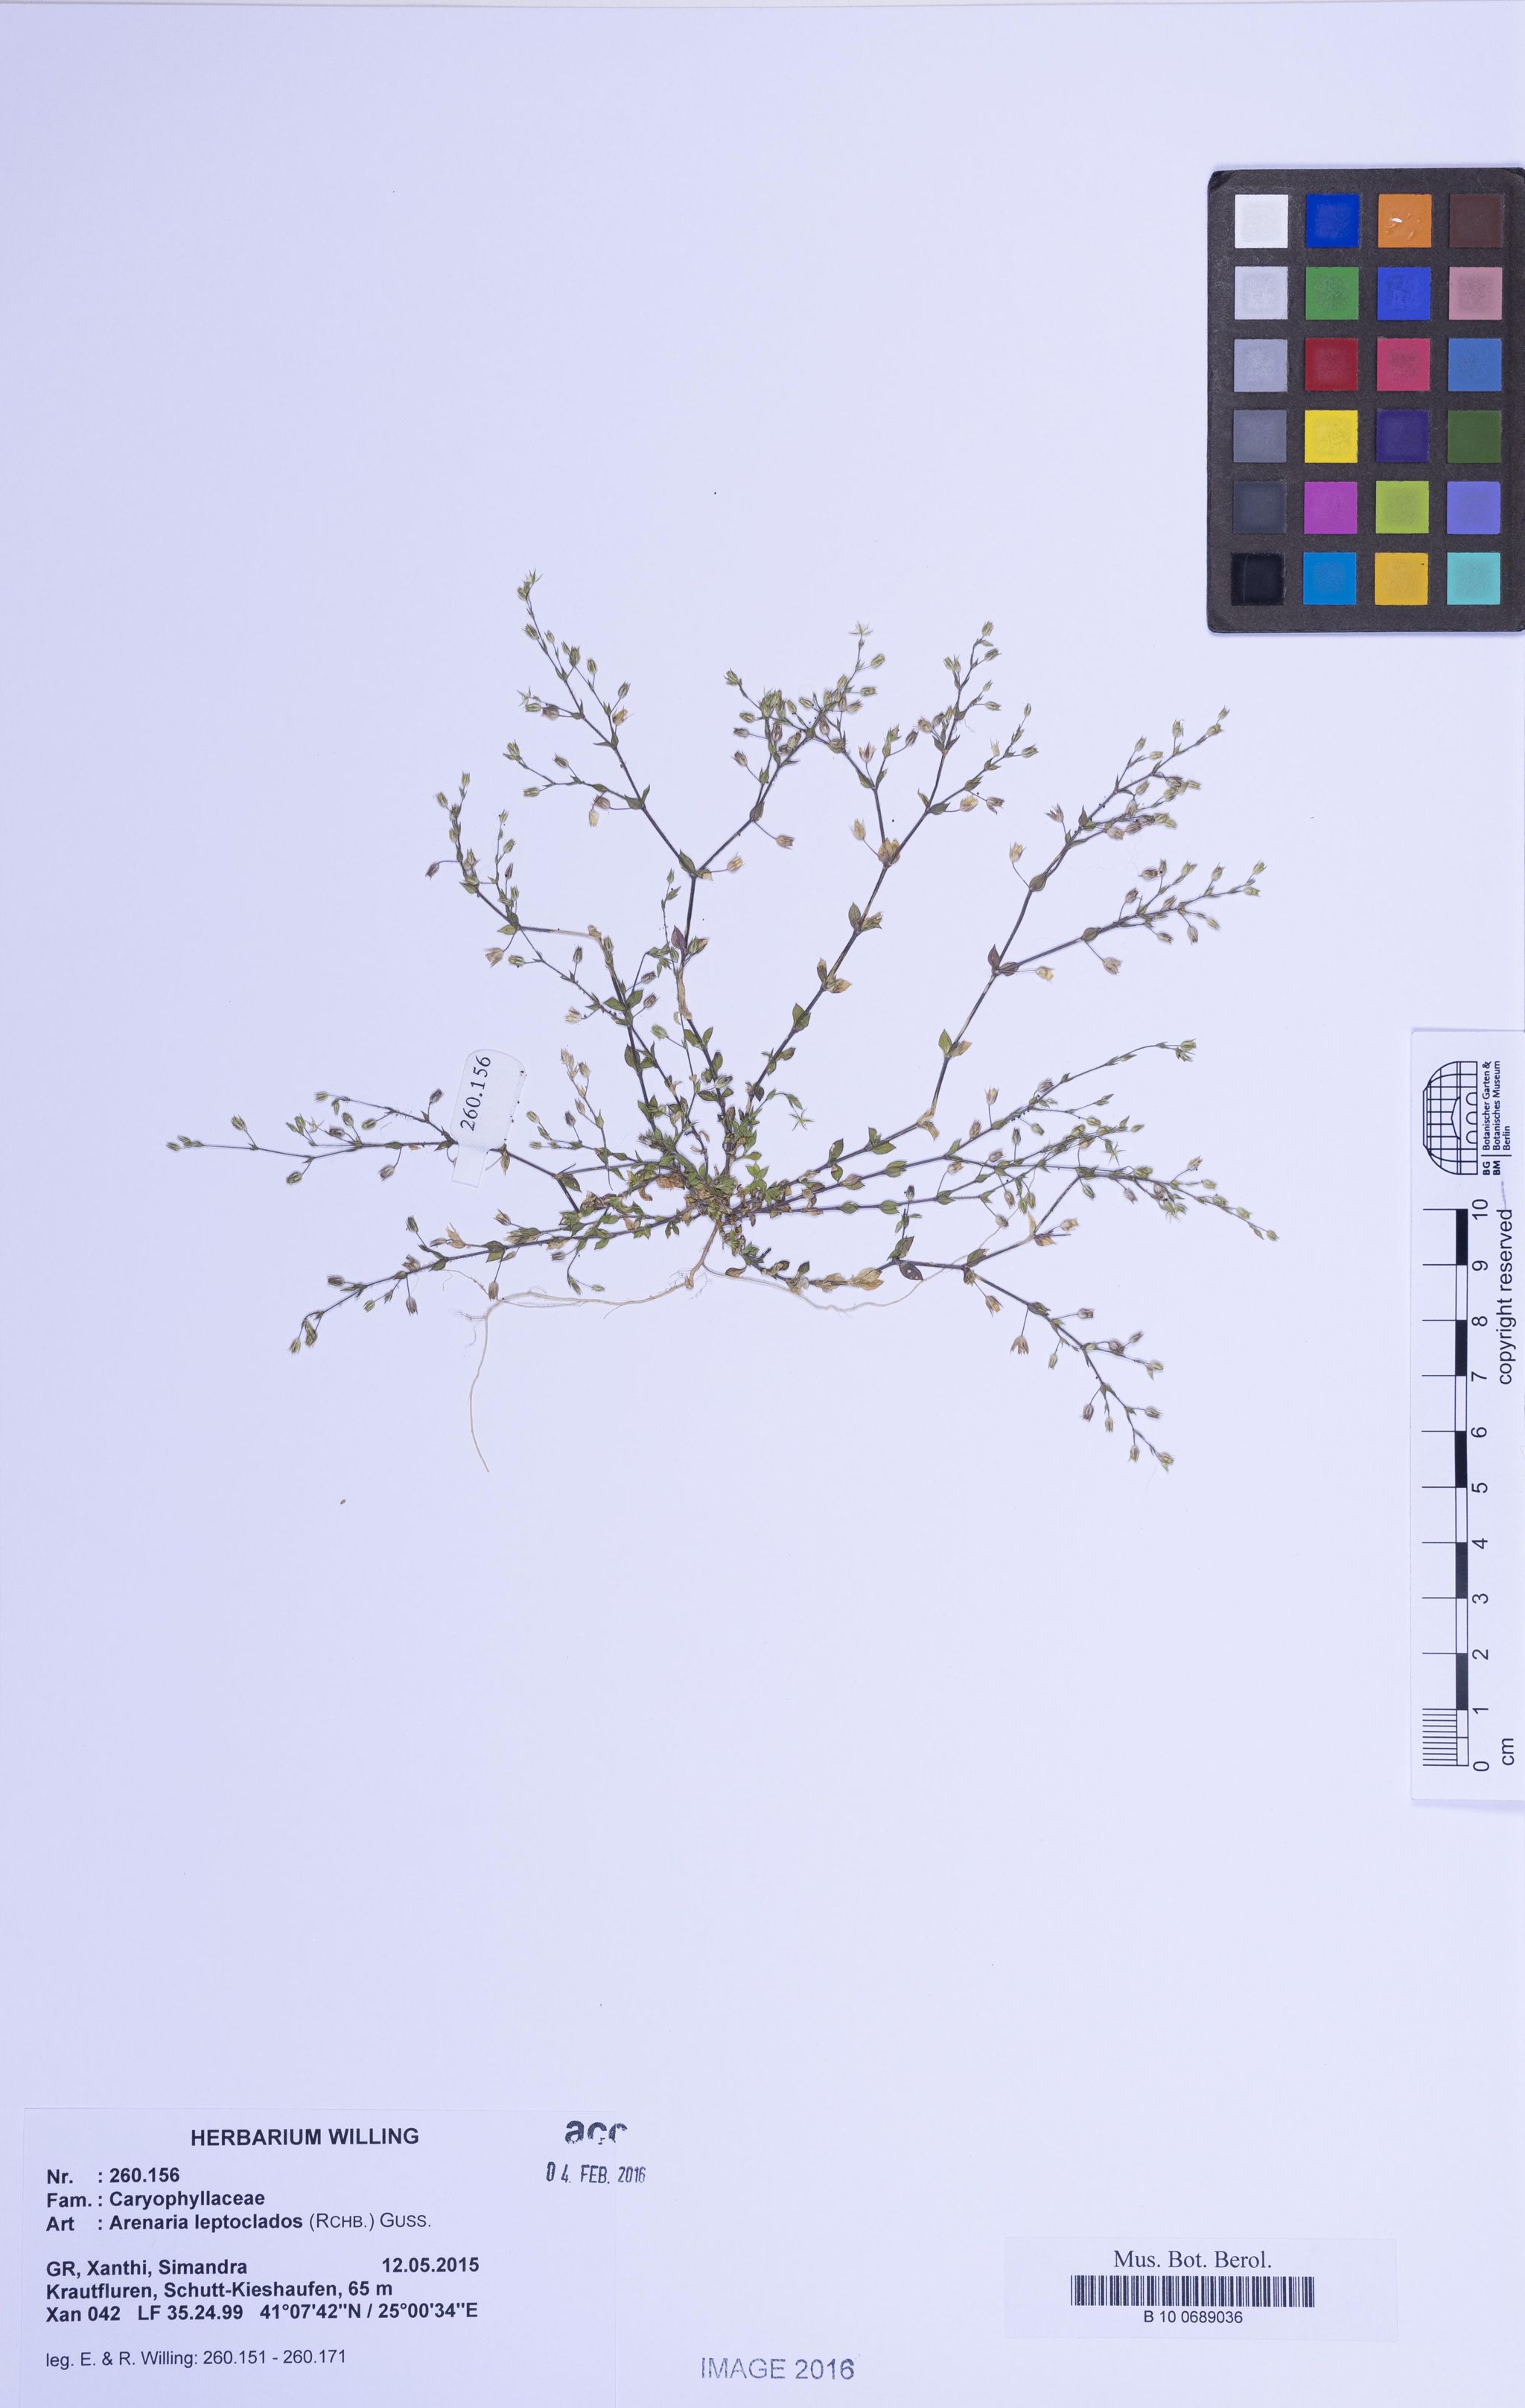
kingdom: Plantae
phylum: Tracheophyta
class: Magnoliopsida
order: Caryophyllales
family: Caryophyllaceae
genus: Arenaria
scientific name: Arenaria leptoclados
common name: Thyme-leaved sandwort
